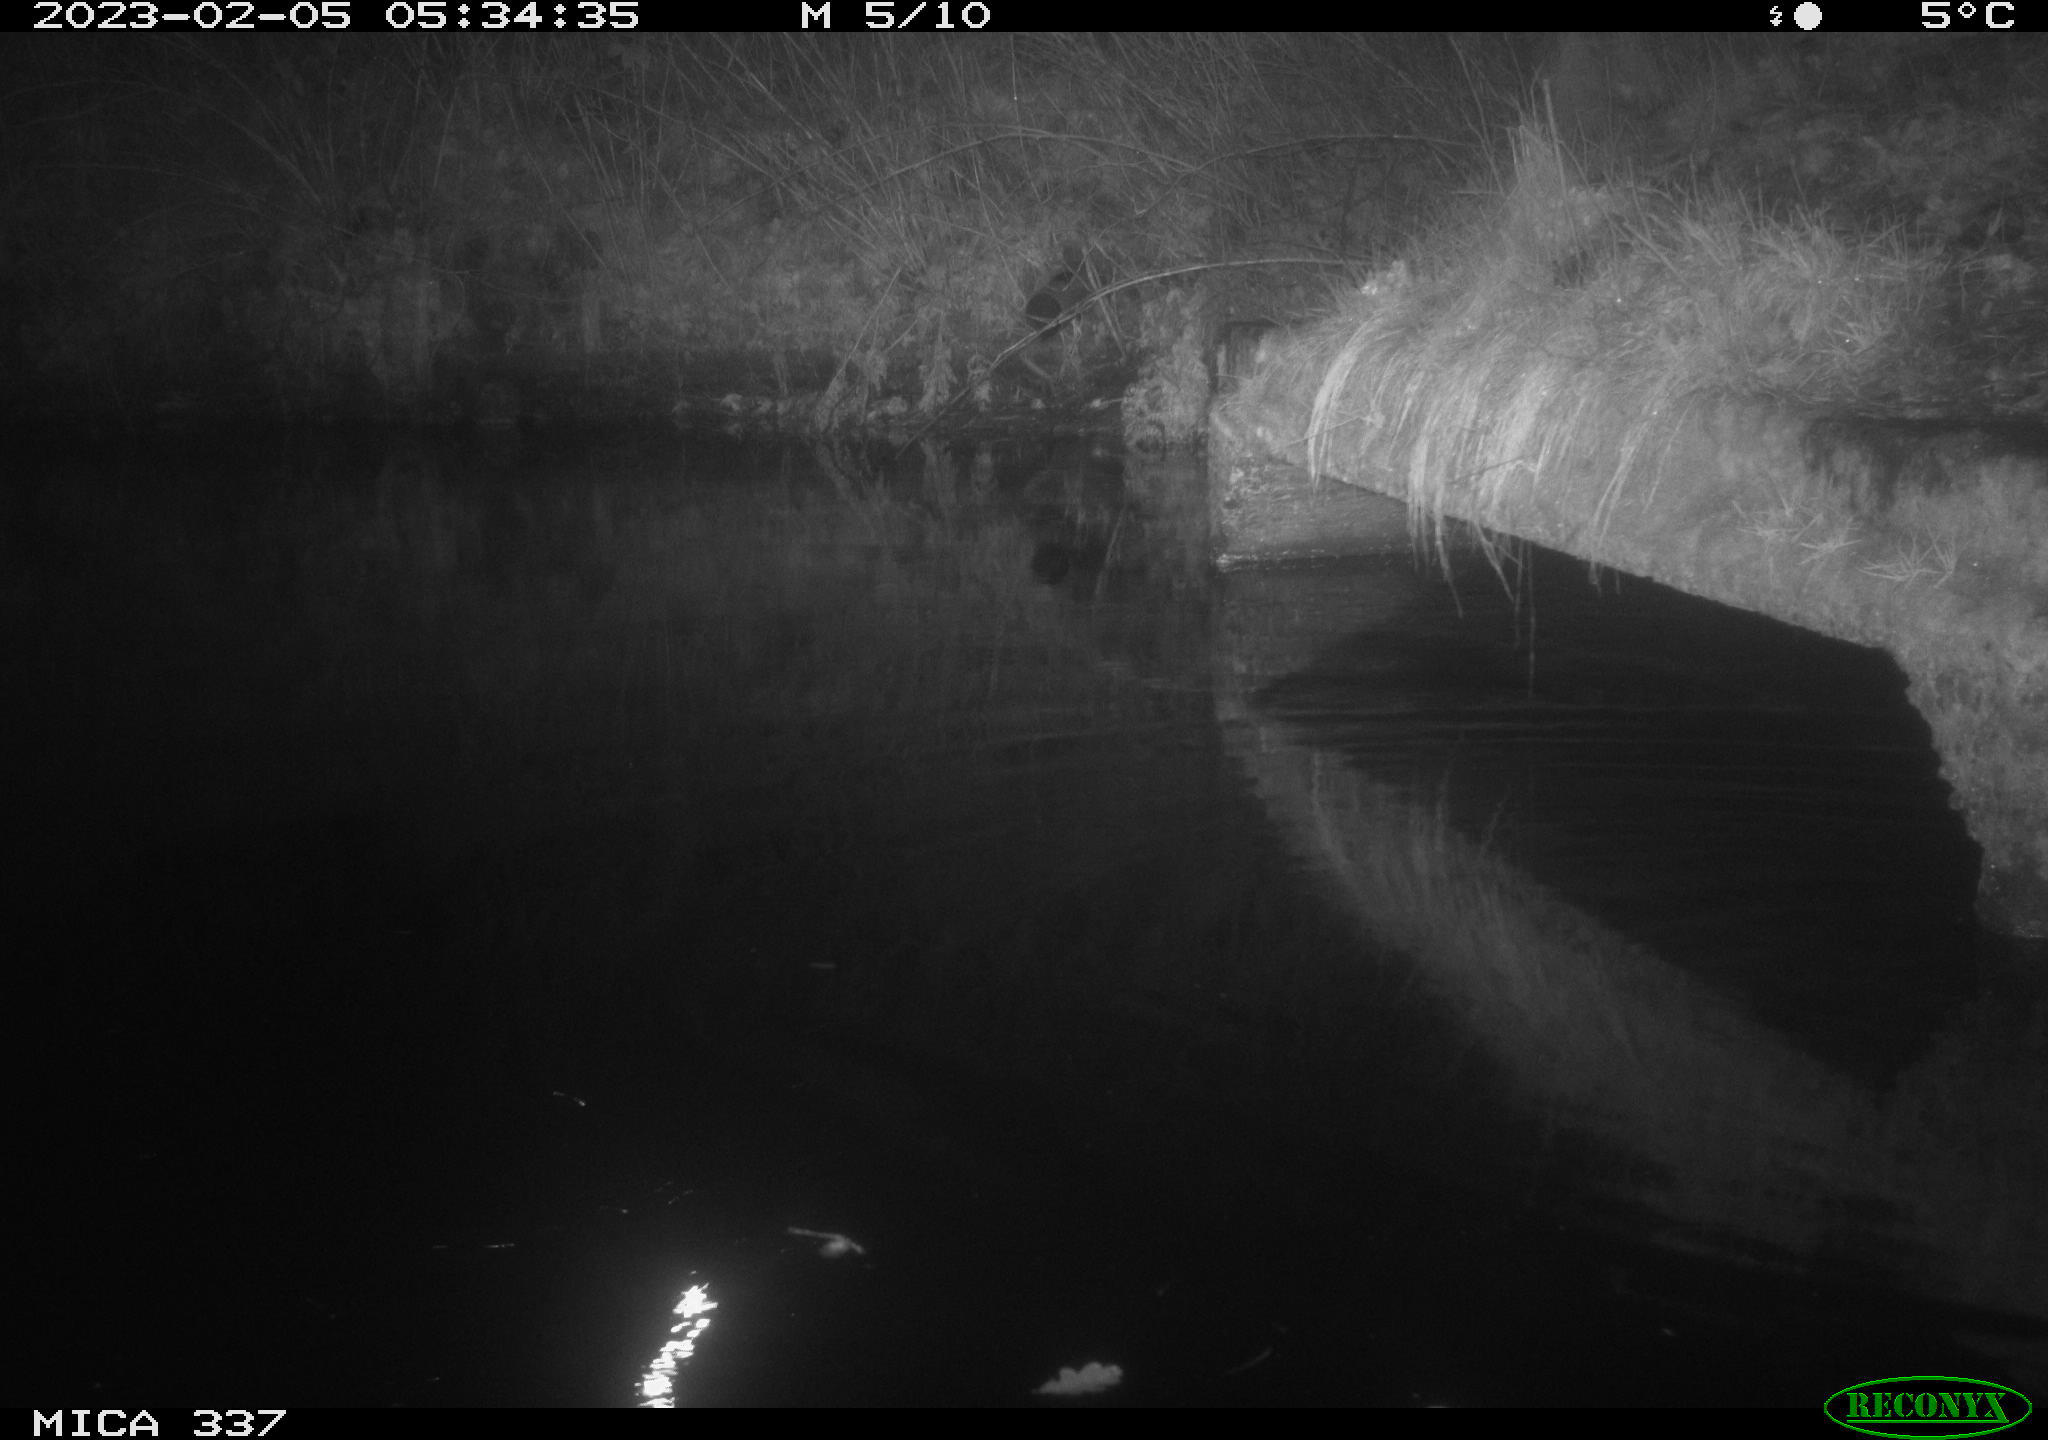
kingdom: Animalia
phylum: Chordata
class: Mammalia
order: Rodentia
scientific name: Rodentia
